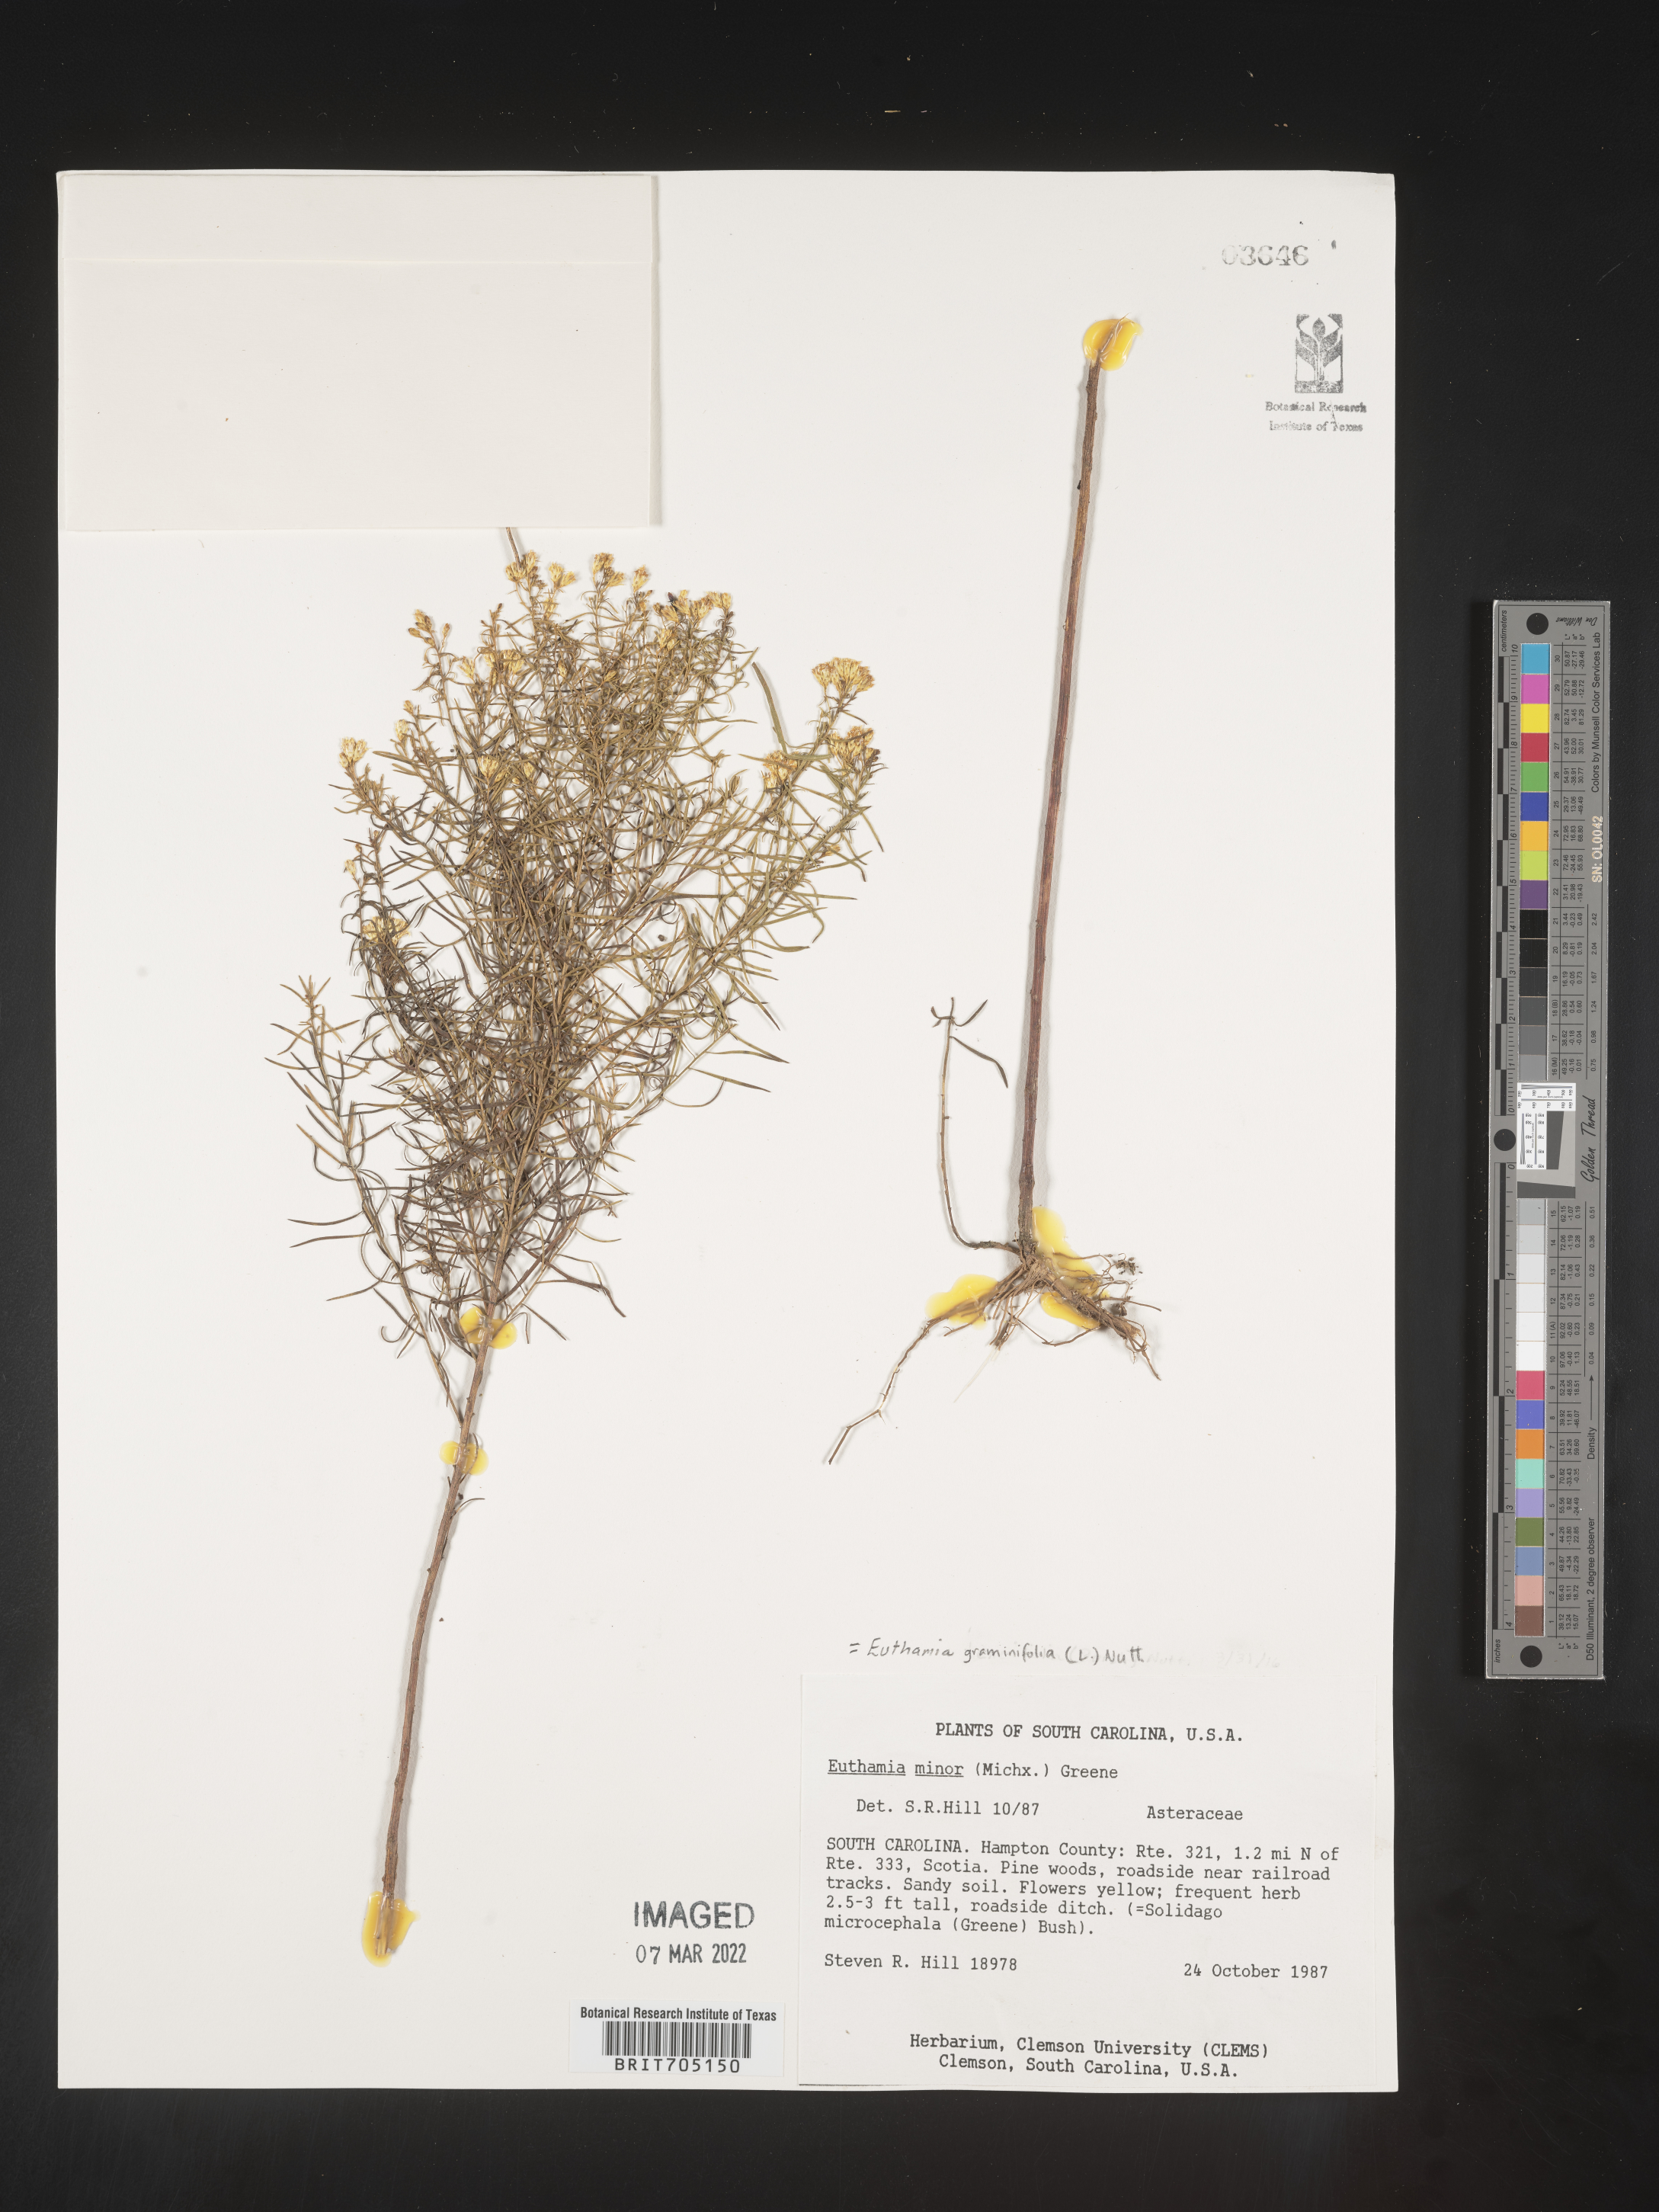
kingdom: Plantae
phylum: Tracheophyta
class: Magnoliopsida
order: Asterales
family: Asteraceae
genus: Euthamia
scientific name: Euthamia graminifolia
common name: Common goldentop
